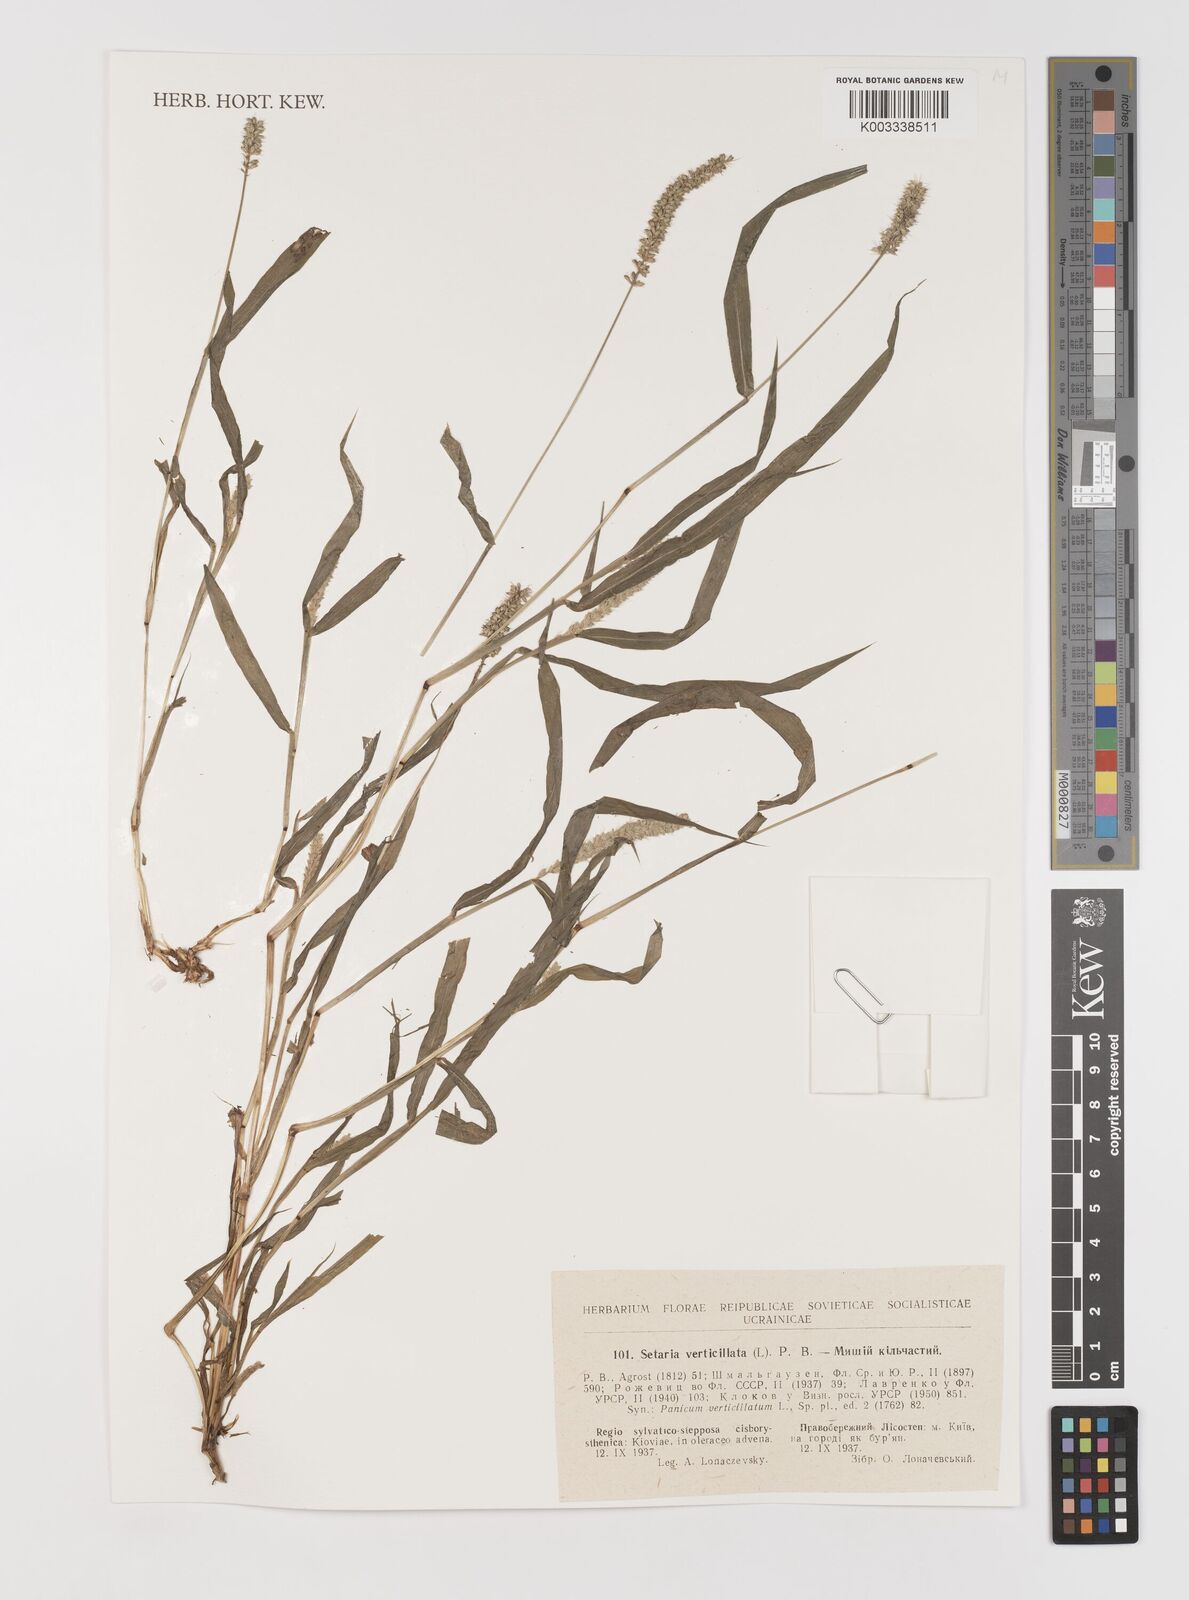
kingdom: Plantae
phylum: Tracheophyta
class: Liliopsida
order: Poales
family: Poaceae
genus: Setaria
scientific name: Setaria verticillata
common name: Hooked bristlegrass
